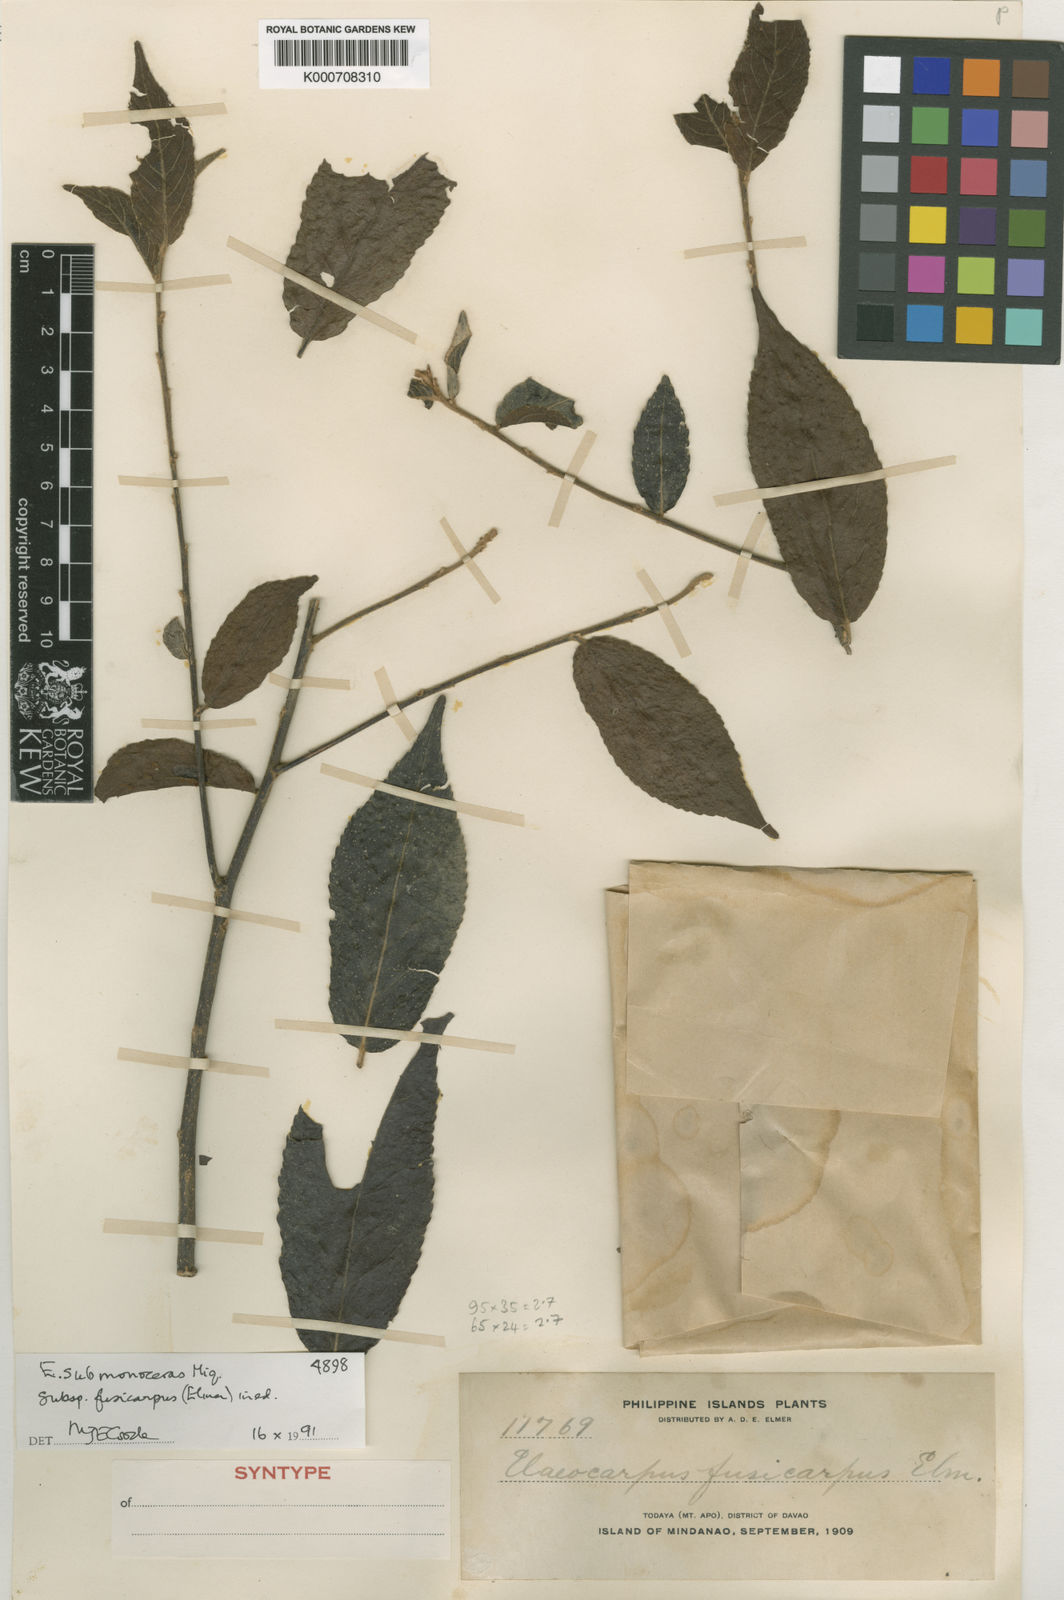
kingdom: Plantae
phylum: Tracheophyta
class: Magnoliopsida
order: Oxalidales
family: Elaeocarpaceae
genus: Elaeocarpus
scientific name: Elaeocarpus submonoceras
